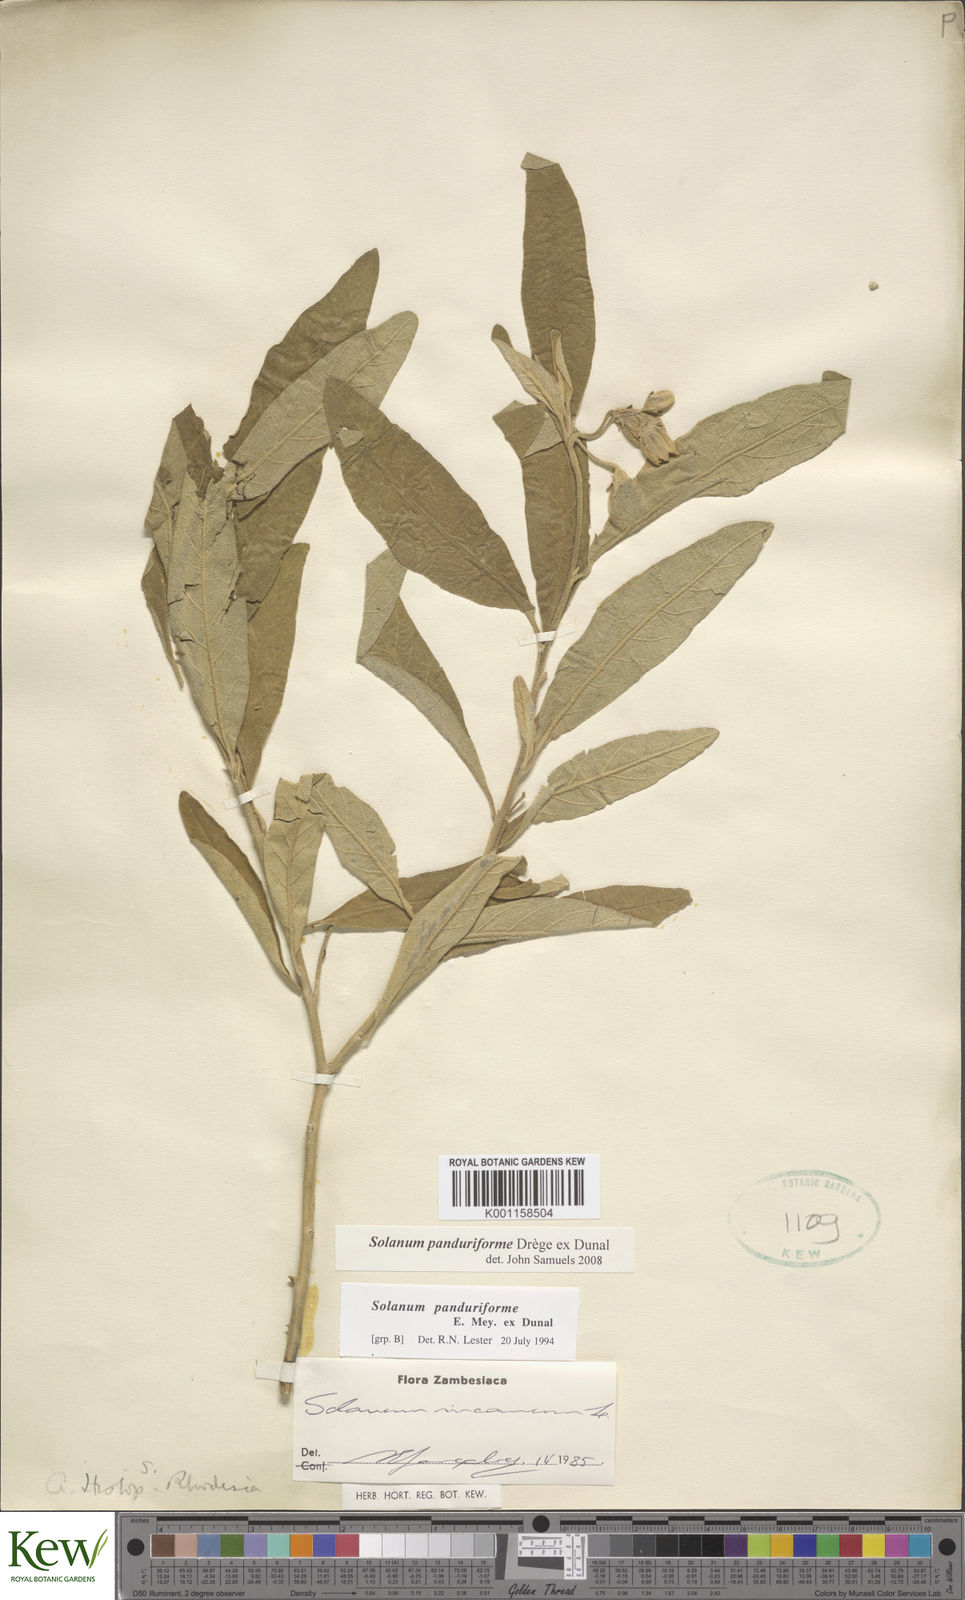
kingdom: Plantae
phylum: Tracheophyta
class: Magnoliopsida
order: Solanales
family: Solanaceae
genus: Solanum
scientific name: Solanum campylacanthum
